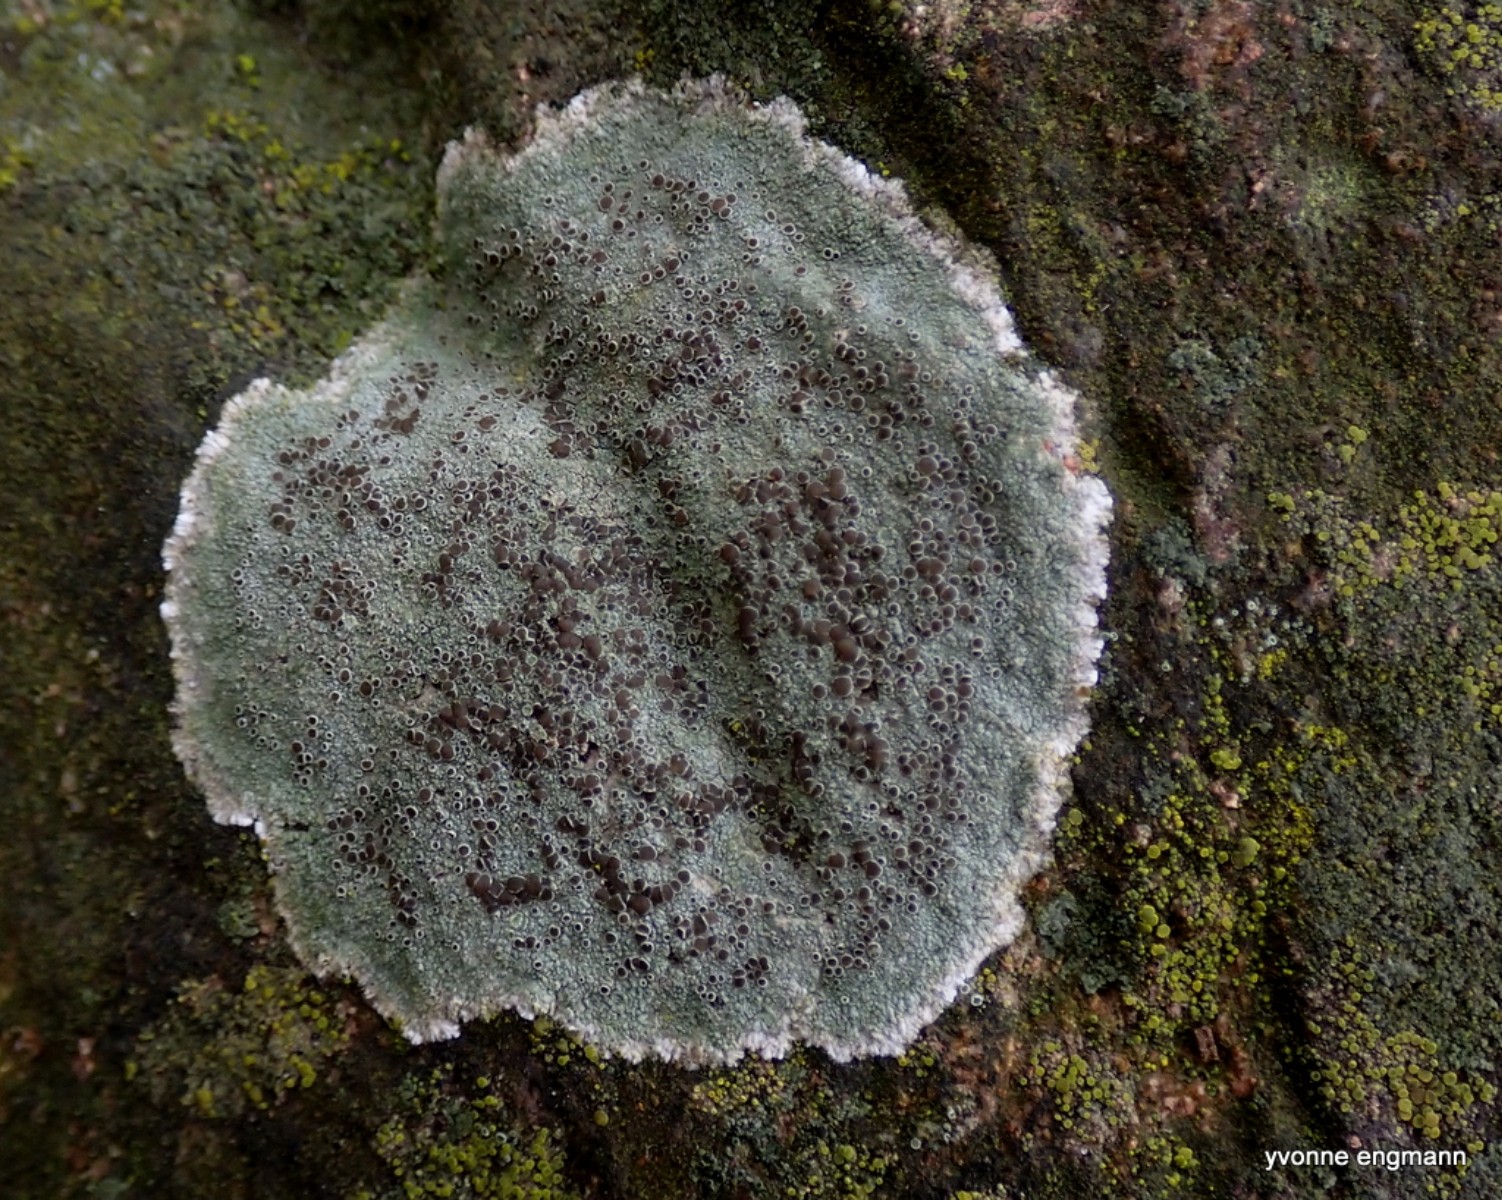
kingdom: Fungi
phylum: Ascomycota
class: Lecanoromycetes
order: Lecanorales
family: Lecanoraceae
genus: Lecanora
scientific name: Lecanora campestris
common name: mur-kantskivelav
